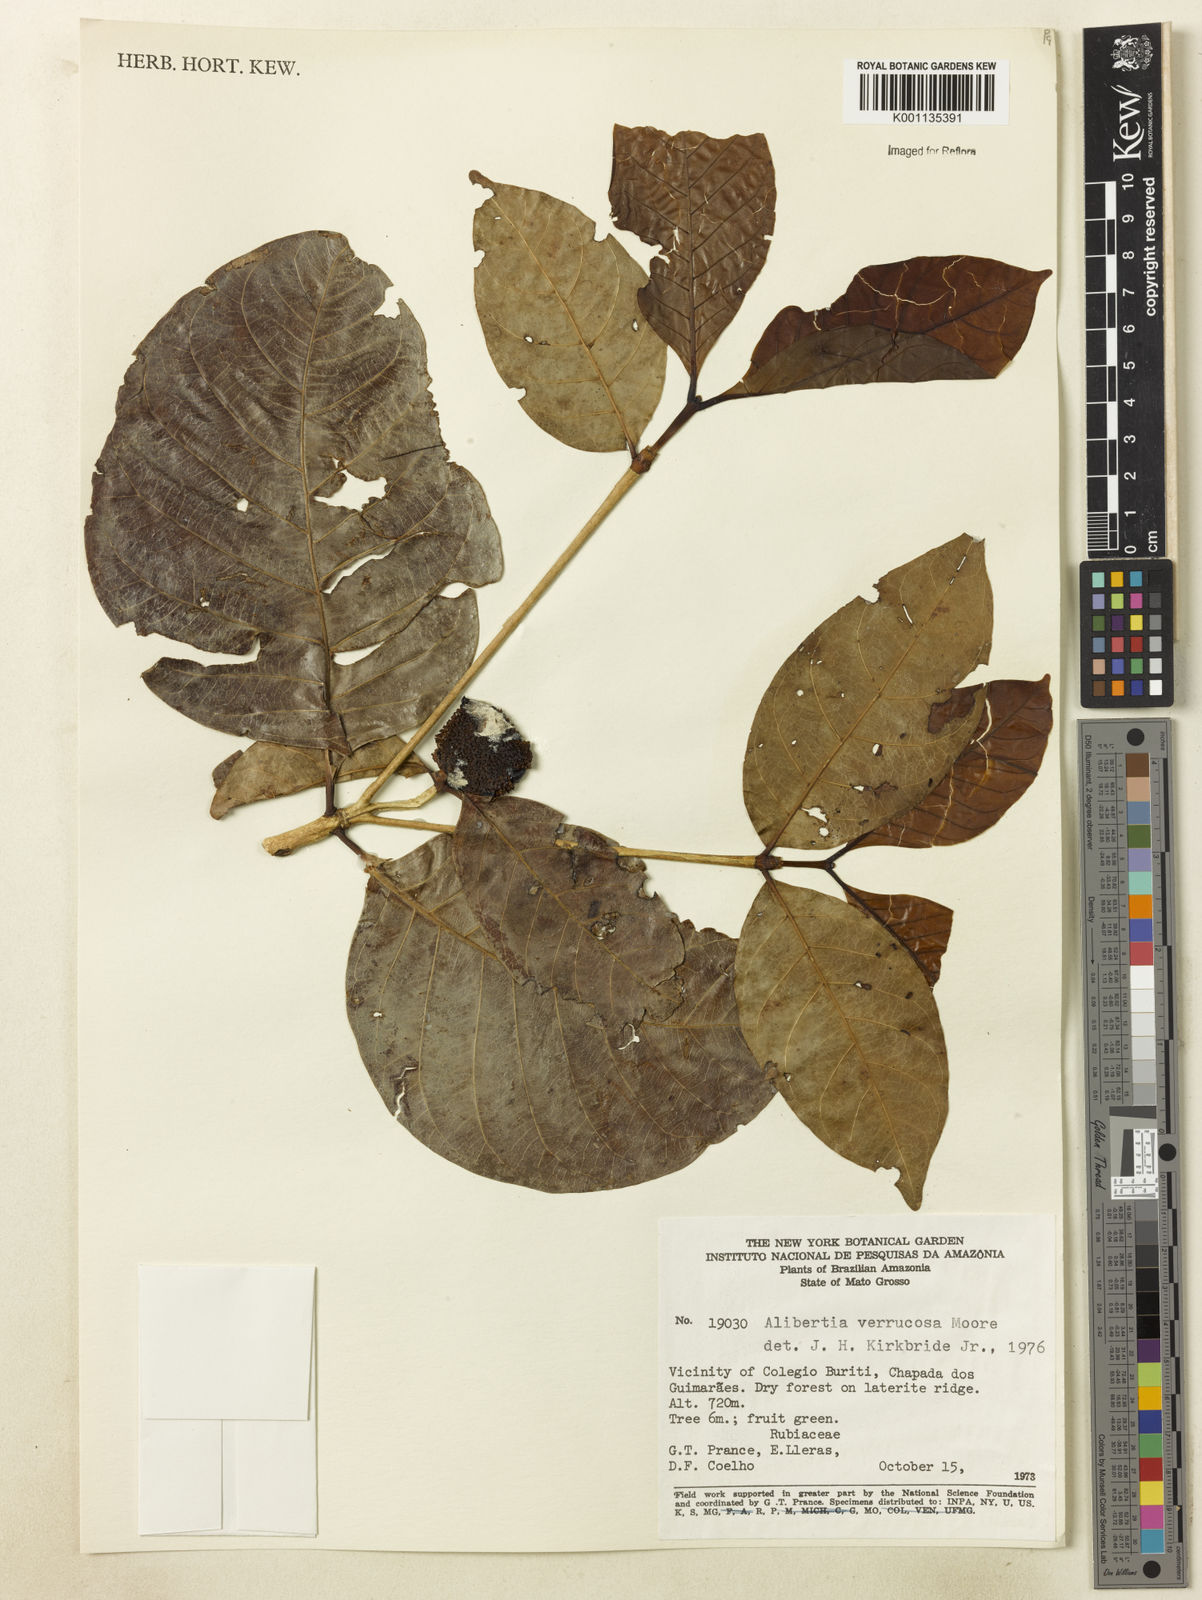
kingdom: Plantae
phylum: Tracheophyta
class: Magnoliopsida
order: Gentianales
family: Rubiaceae
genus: Cordiera
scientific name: Cordiera macrophylla
